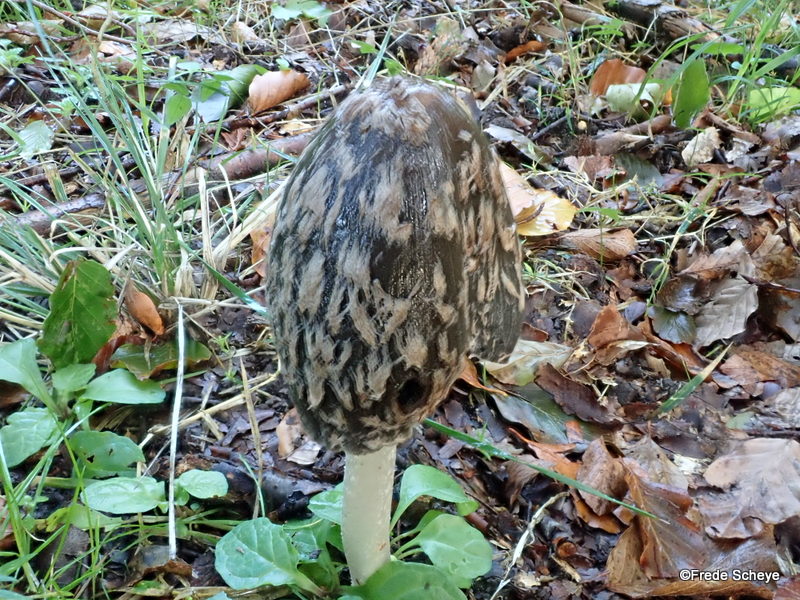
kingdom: Fungi
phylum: Basidiomycota
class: Agaricomycetes
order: Agaricales
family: Psathyrellaceae
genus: Coprinopsis
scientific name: Coprinopsis picacea
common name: skade-blækhat
